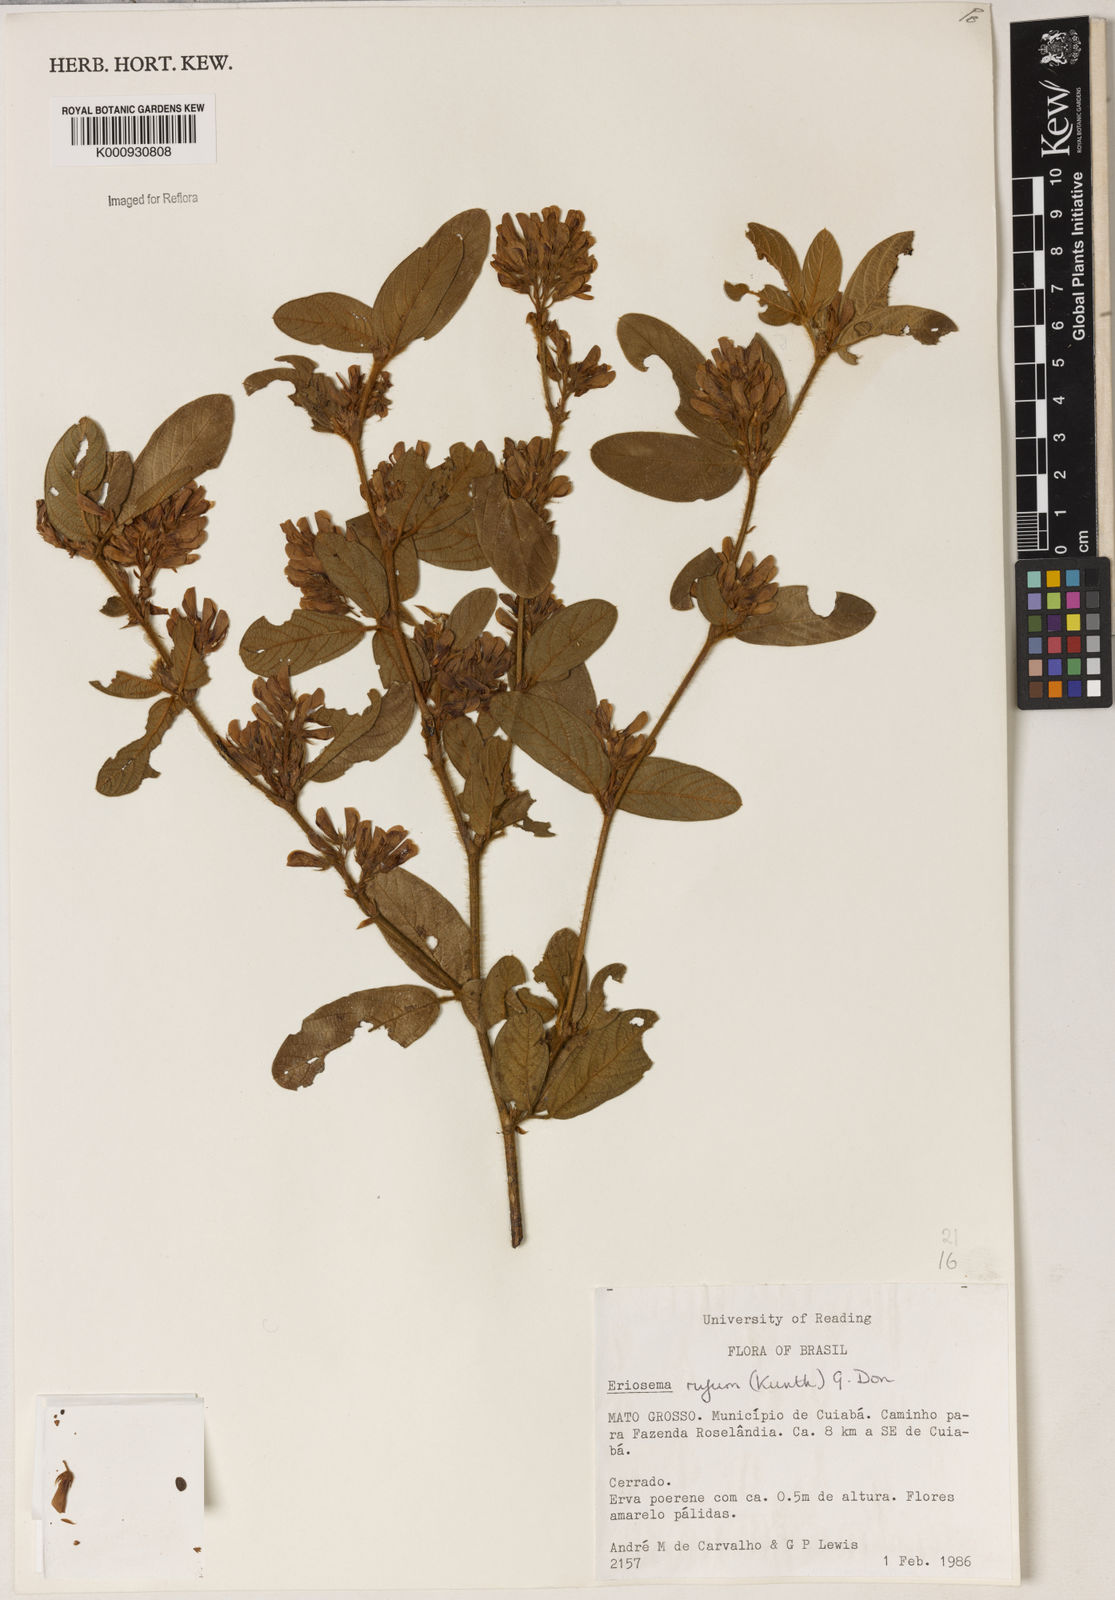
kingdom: Plantae
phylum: Tracheophyta
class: Magnoliopsida
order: Fabales
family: Fabaceae
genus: Eriosema
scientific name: Eriosema rufum
